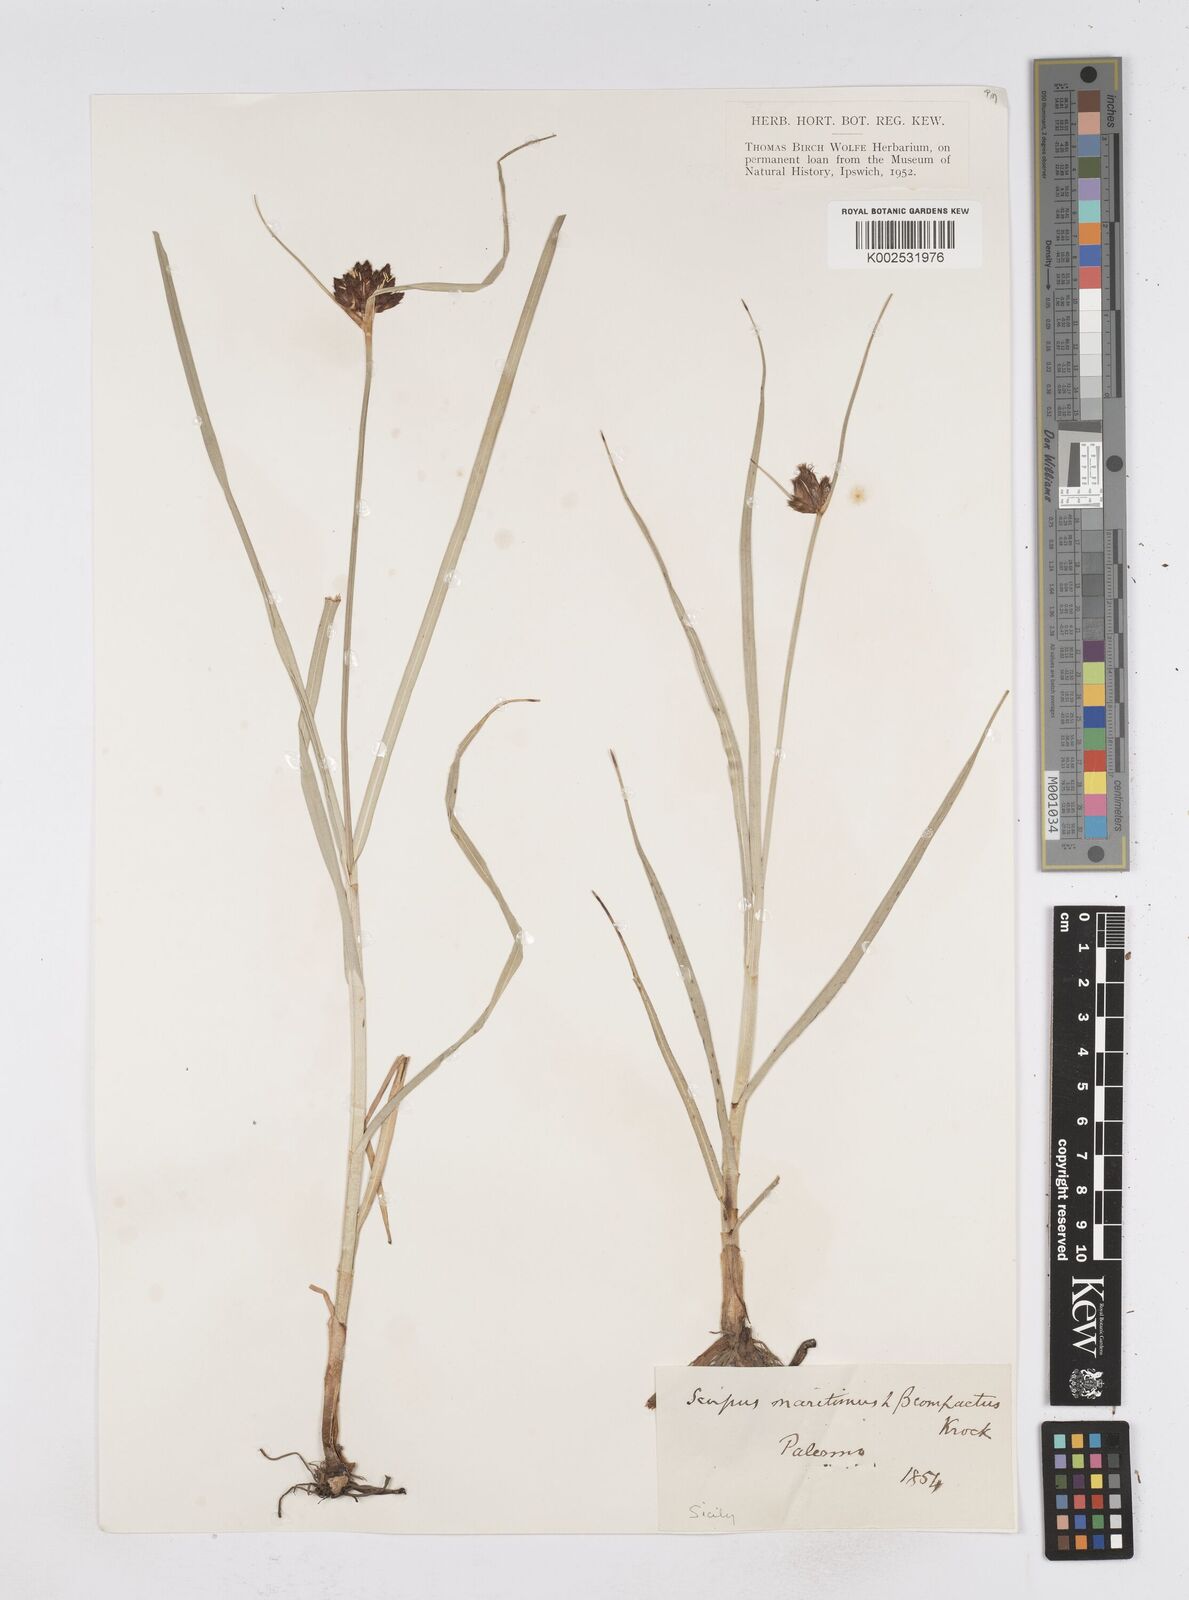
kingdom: Plantae
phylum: Tracheophyta
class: Liliopsida
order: Poales
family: Cyperaceae
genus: Bolboschoenus
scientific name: Bolboschoenus maritimus
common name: Sea club-rush
